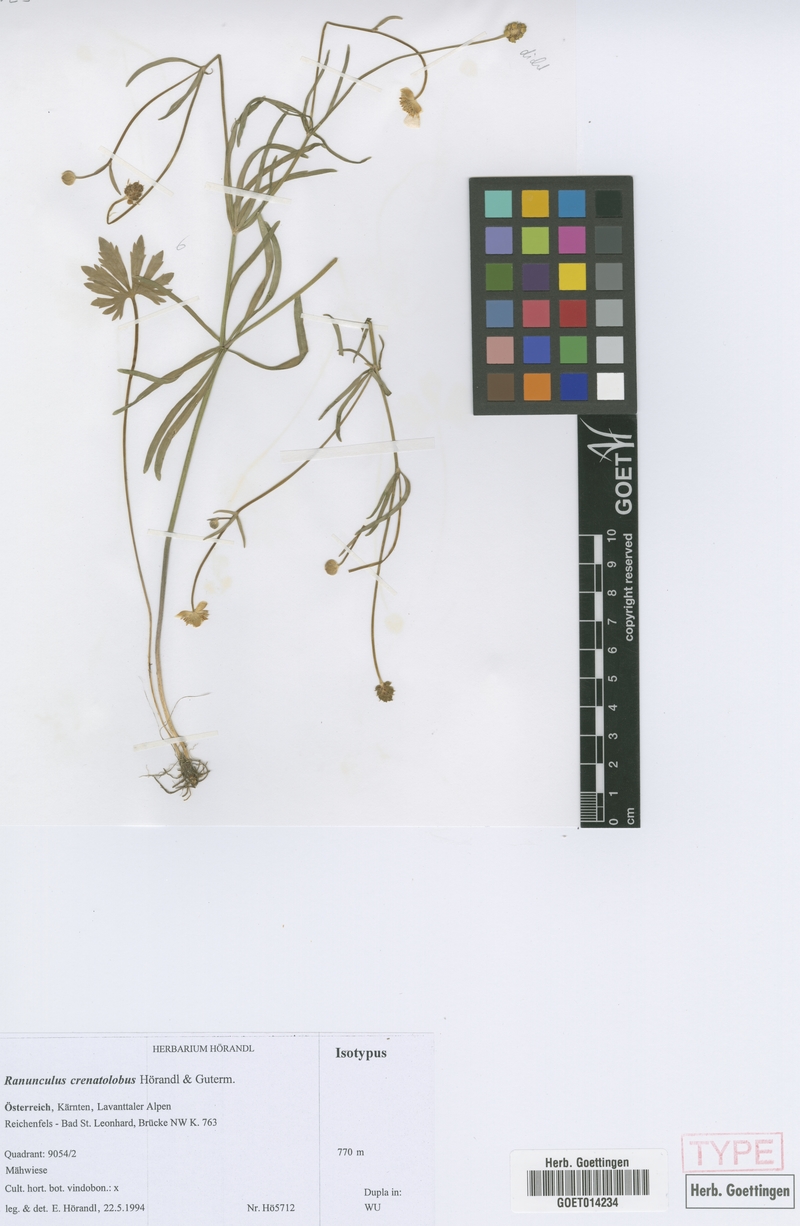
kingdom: Plantae
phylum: Tracheophyta
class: Magnoliopsida
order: Ranunculales
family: Ranunculaceae
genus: Ranunculus
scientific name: Ranunculus crenatolobus
